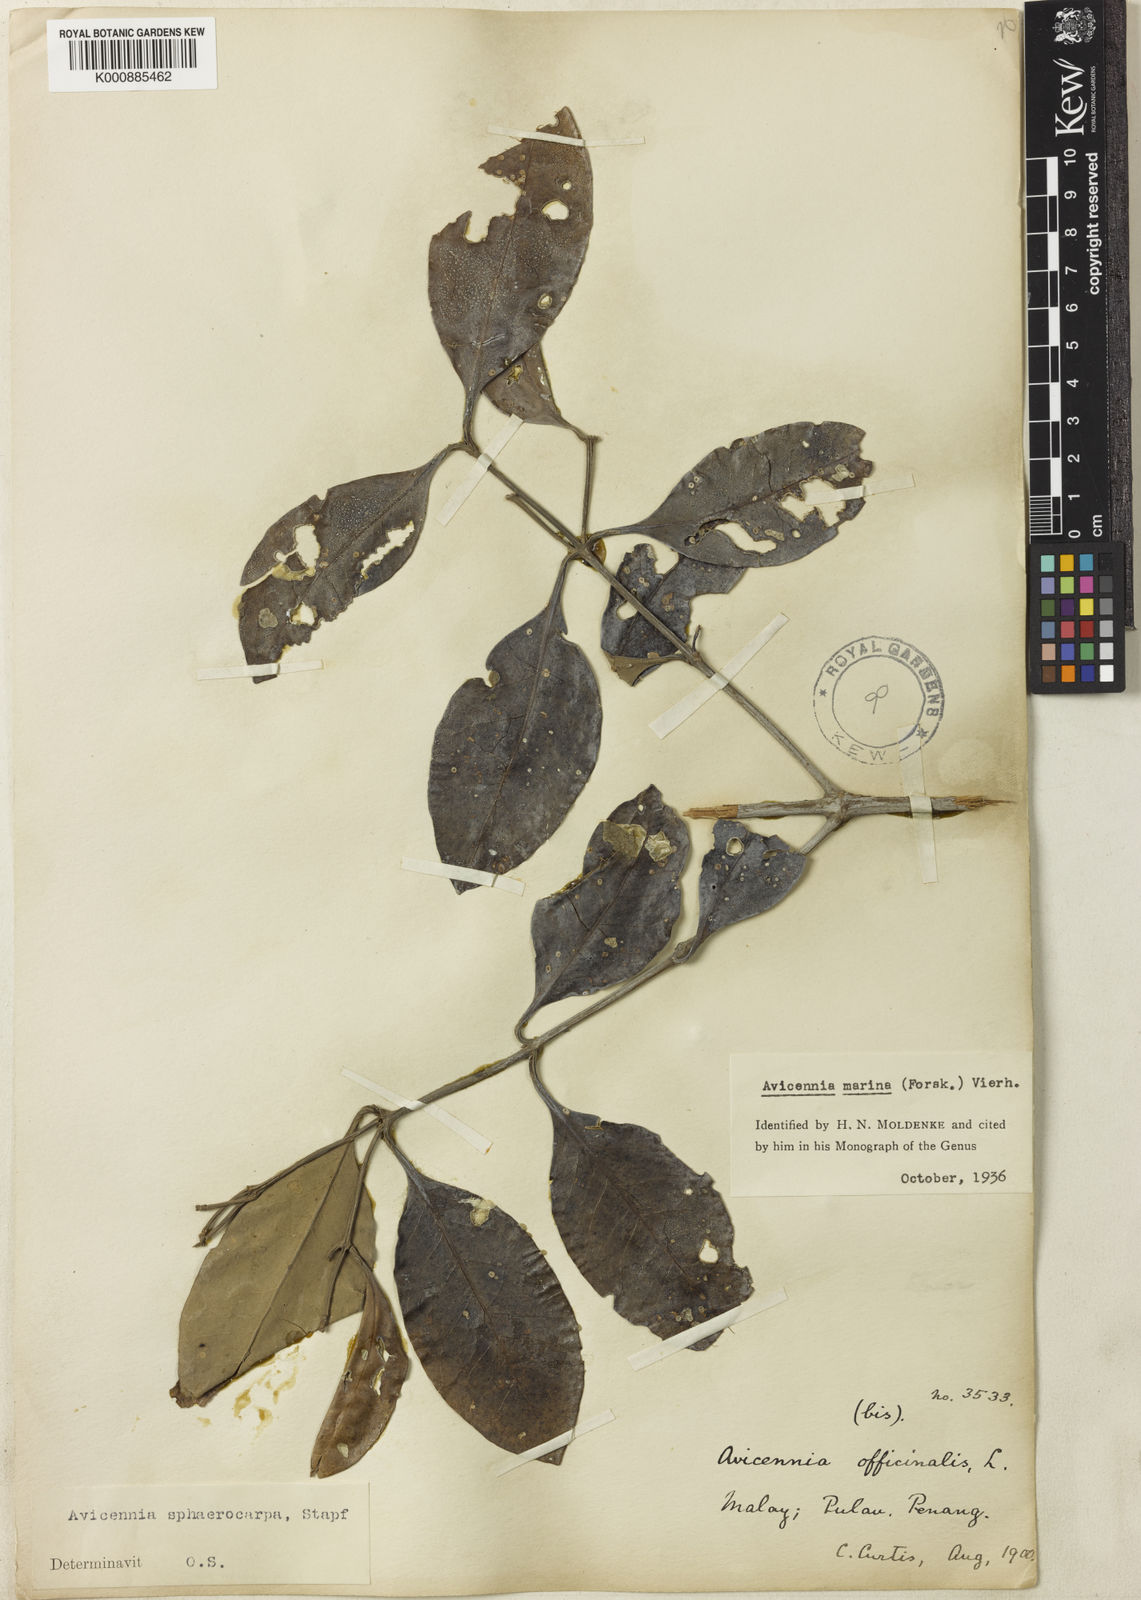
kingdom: Plantae
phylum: Tracheophyta
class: Magnoliopsida
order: Lamiales
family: Acanthaceae
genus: Avicennia
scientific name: Avicennia marina
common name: Gray mangrove
